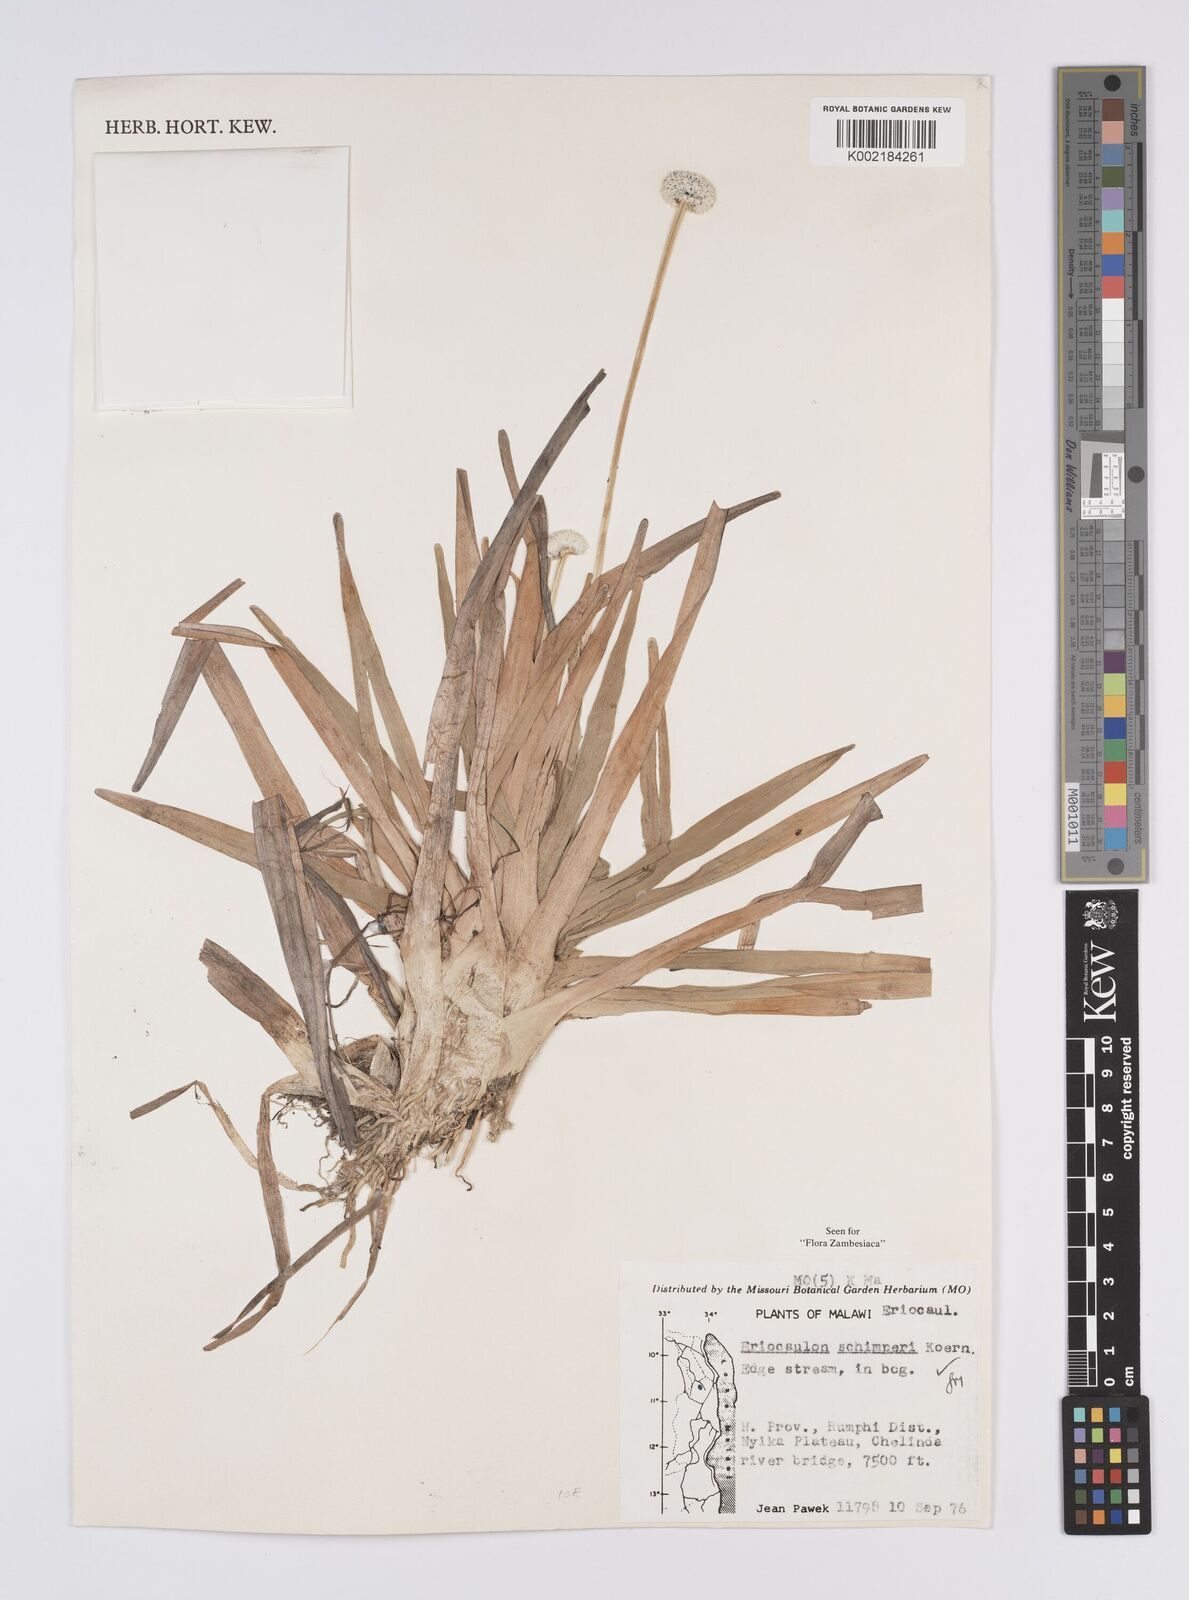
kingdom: Plantae
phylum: Tracheophyta
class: Liliopsida
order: Poales
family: Eriocaulaceae
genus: Eriocaulon
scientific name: Eriocaulon schimperi
